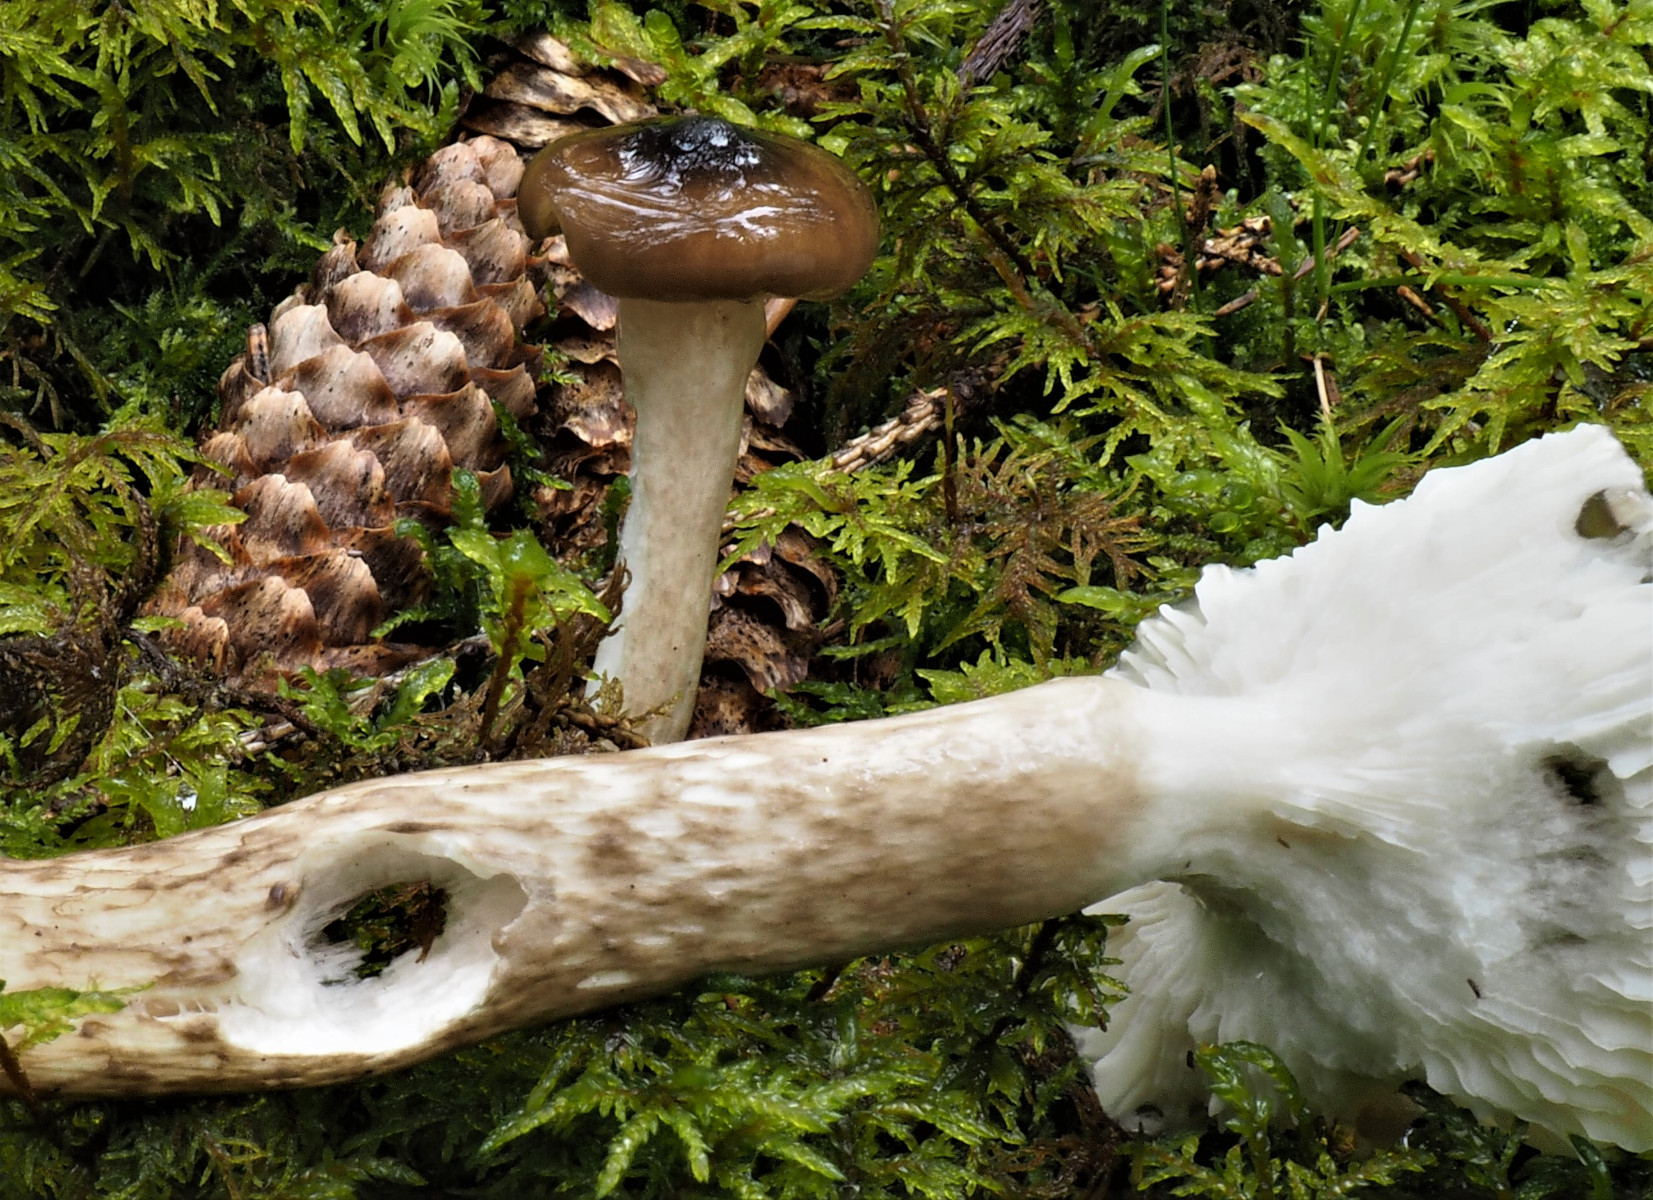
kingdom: Fungi
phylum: Basidiomycota
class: Agaricomycetes
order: Agaricales
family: Hygrophoraceae
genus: Hygrophorus
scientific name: Hygrophorus olivaceoalbus
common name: hvidbrun sneglehat
